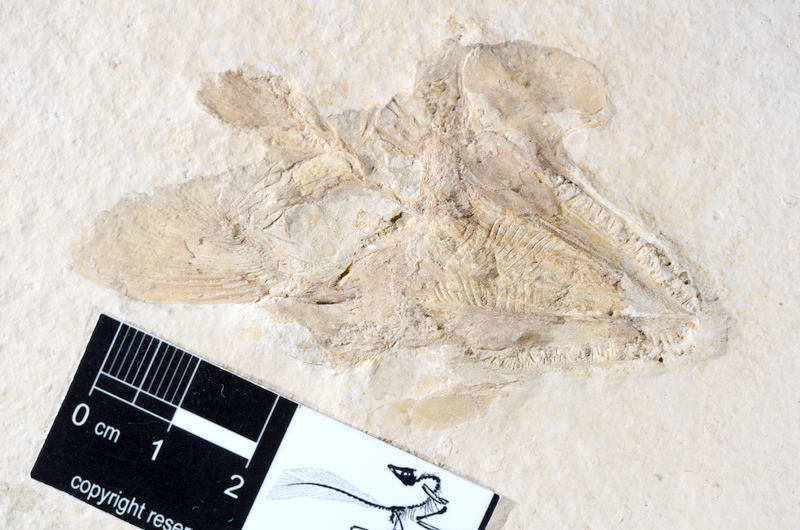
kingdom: Animalia
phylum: Chordata
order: Amiiformes
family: Caturidae
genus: Caturus
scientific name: Caturus
